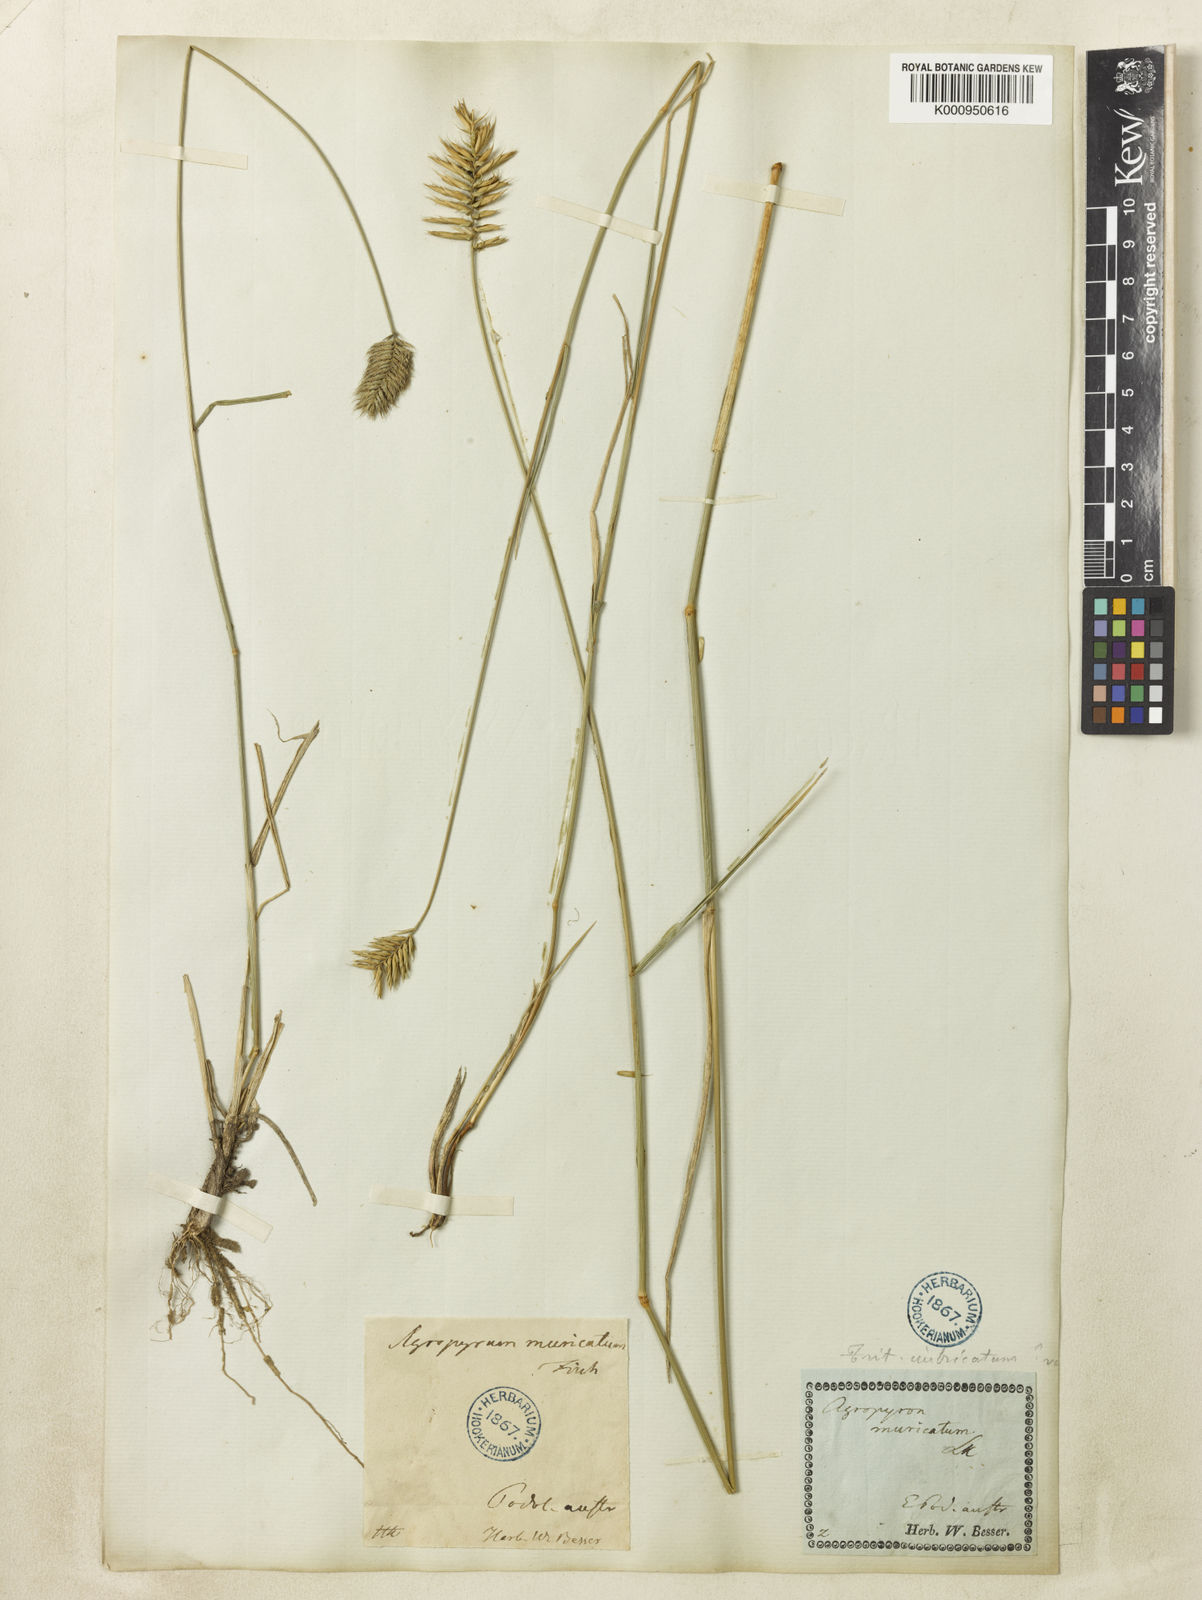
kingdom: Plantae
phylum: Tracheophyta
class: Liliopsida
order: Poales
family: Poaceae
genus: Agropyron
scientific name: Agropyron cristatum
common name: Crested wheatgrass
